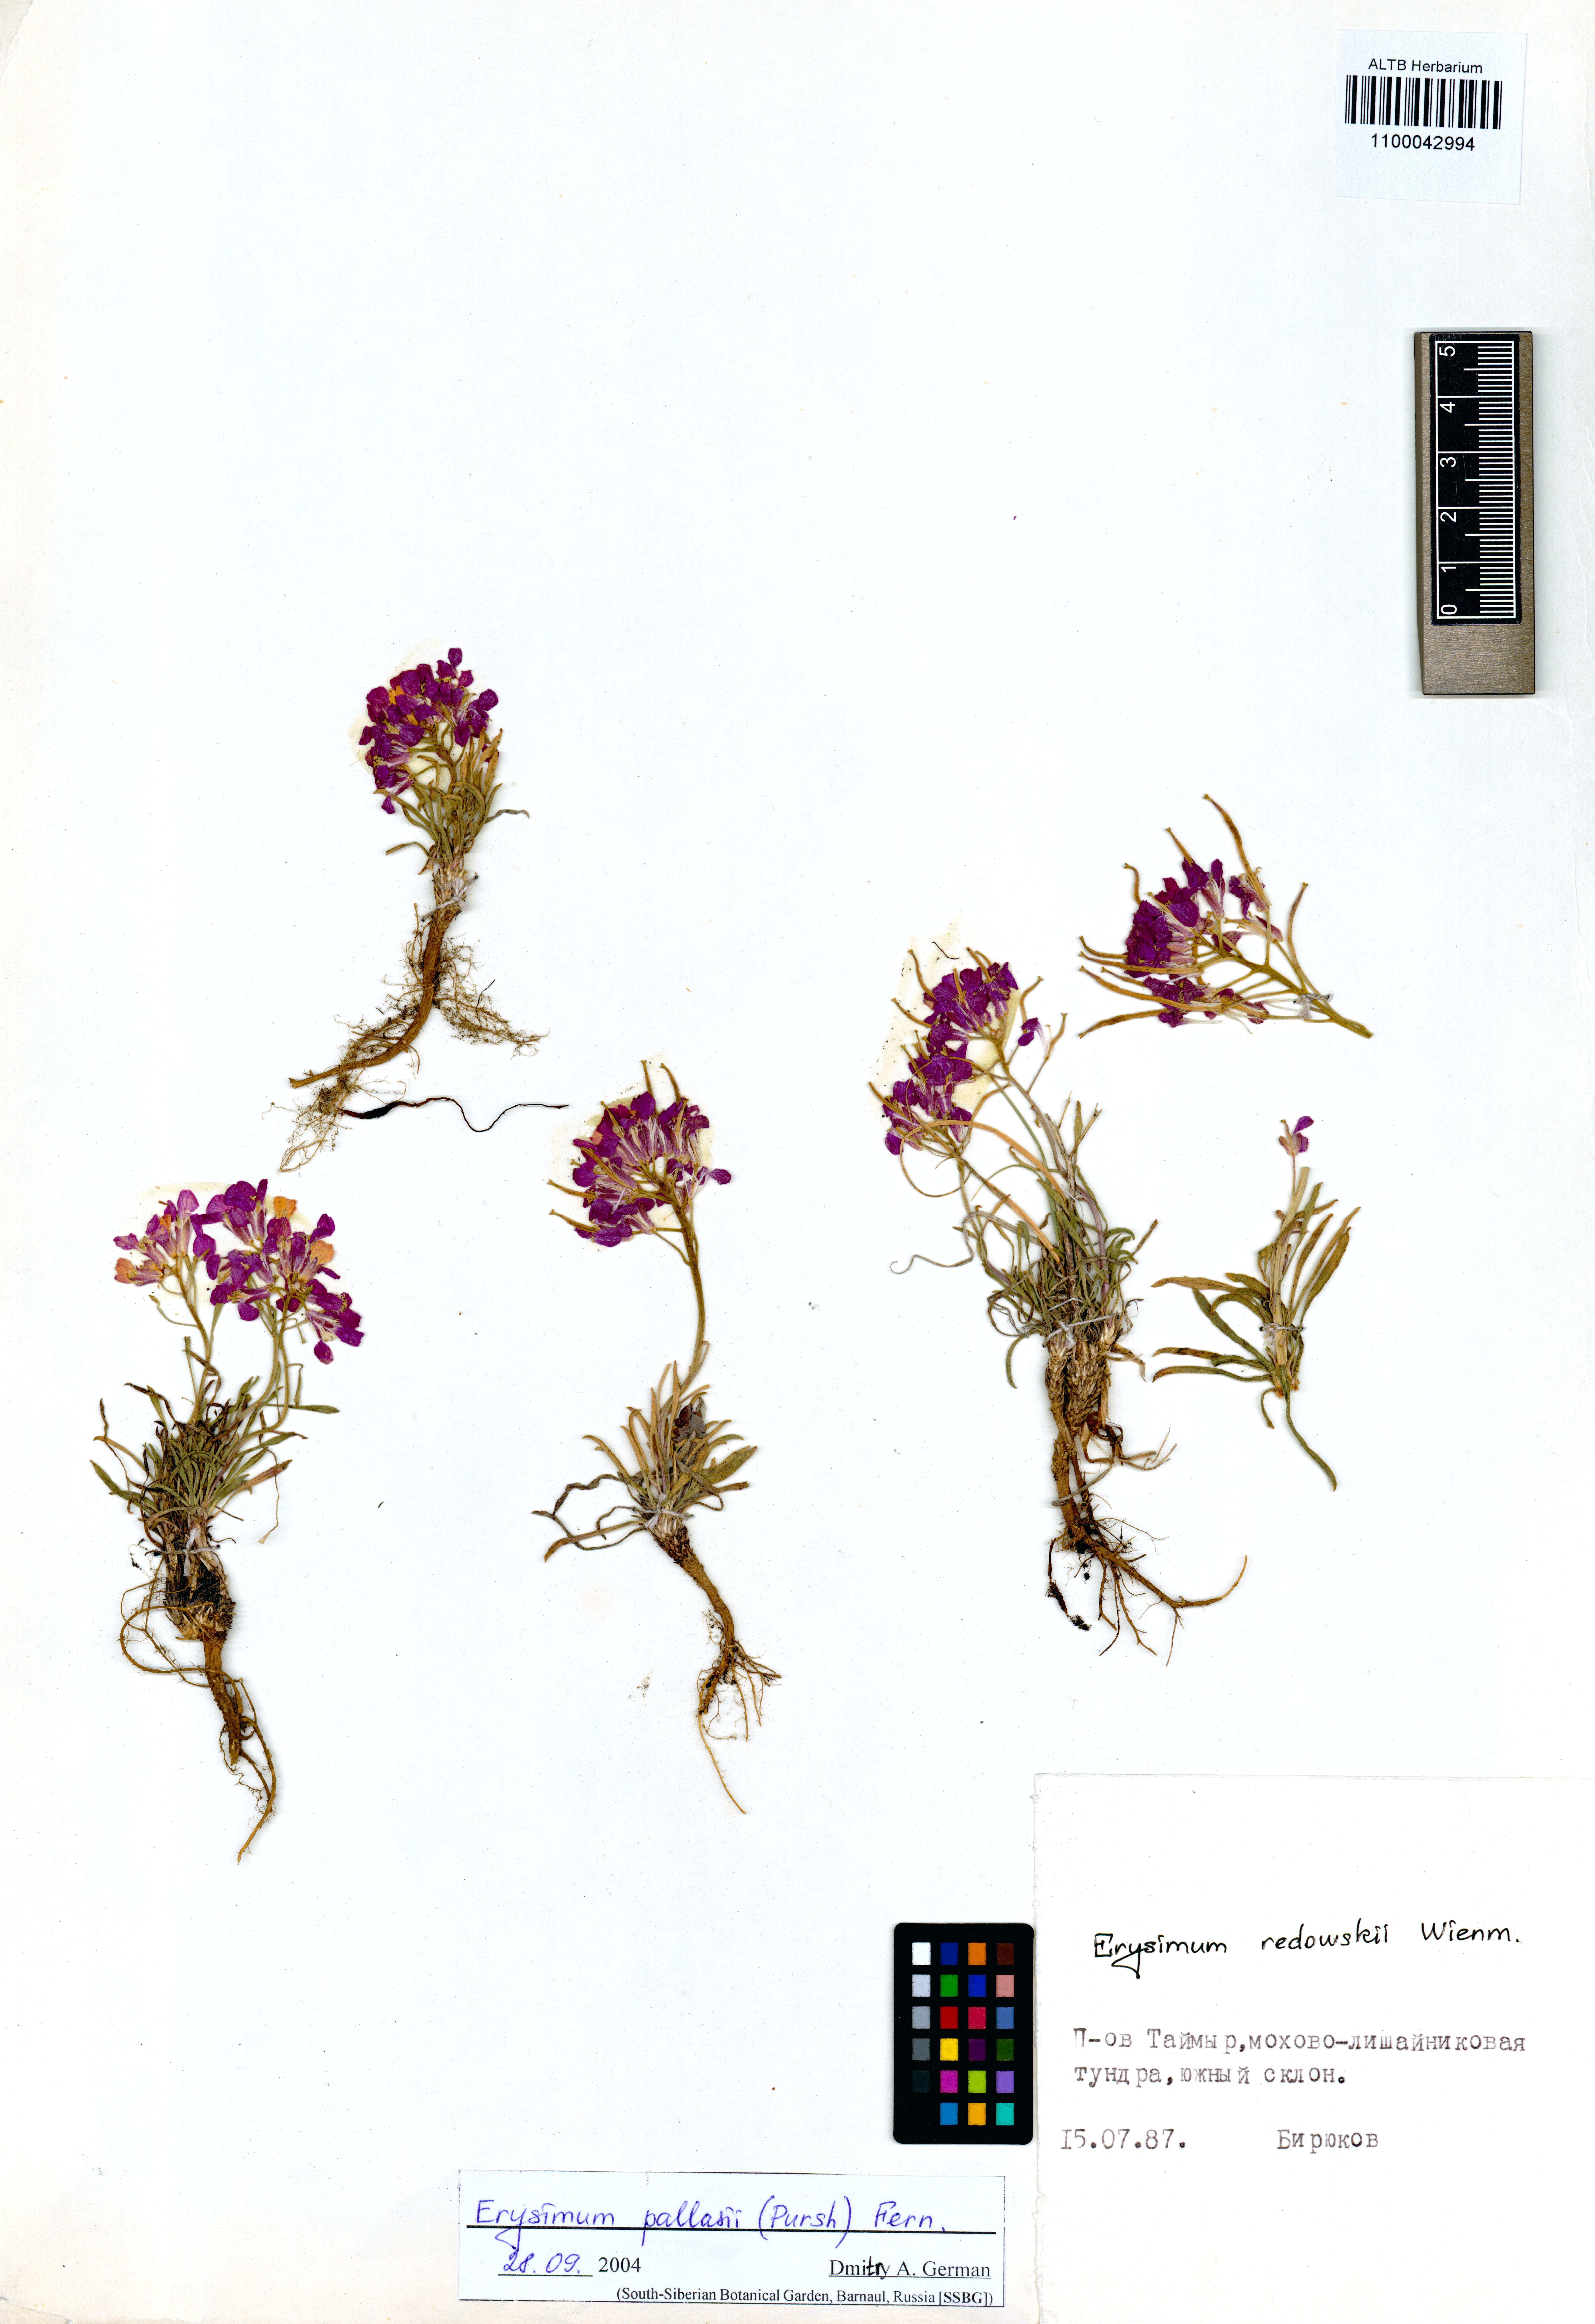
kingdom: Plantae
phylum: Tracheophyta
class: Magnoliopsida
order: Brassicales
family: Brassicaceae
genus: Erysimum
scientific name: Erysimum pallasii
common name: Pallas' wallflower
